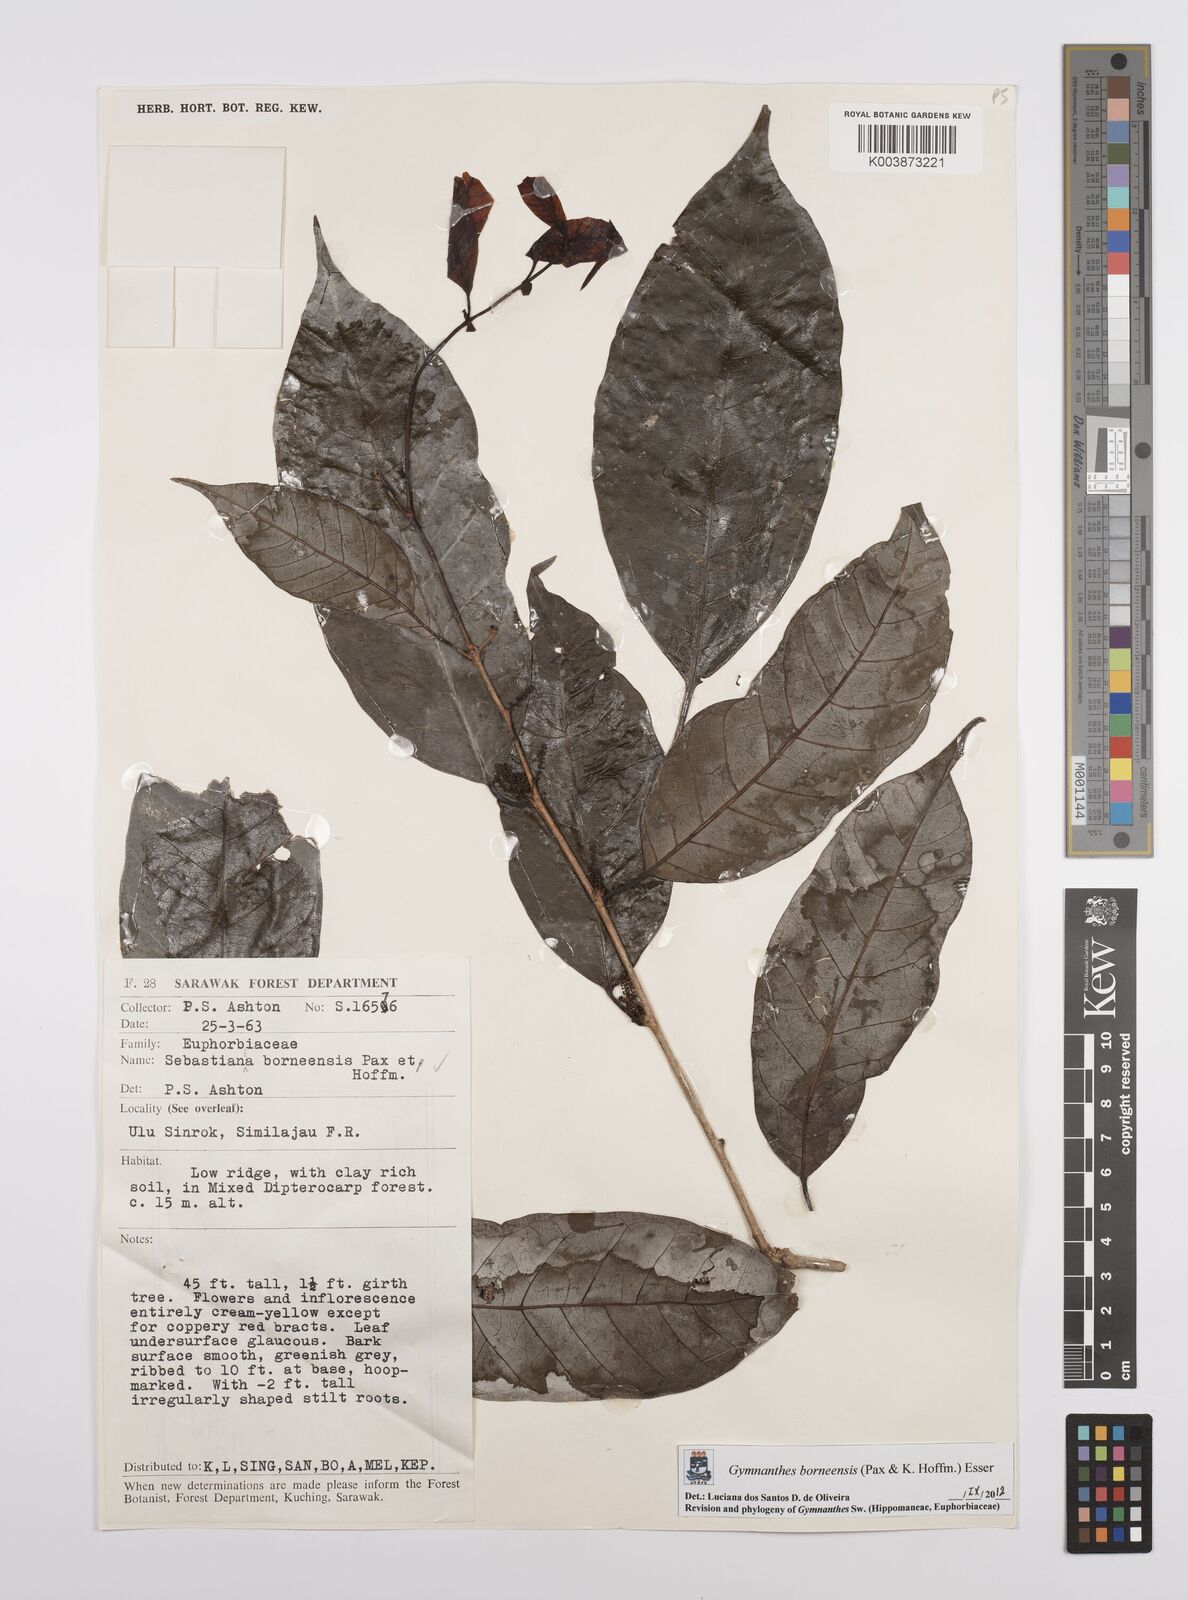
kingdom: Plantae
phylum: Tracheophyta
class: Magnoliopsida
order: Malpighiales
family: Euphorbiaceae
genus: Gymnanthes
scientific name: Gymnanthes borneensis
